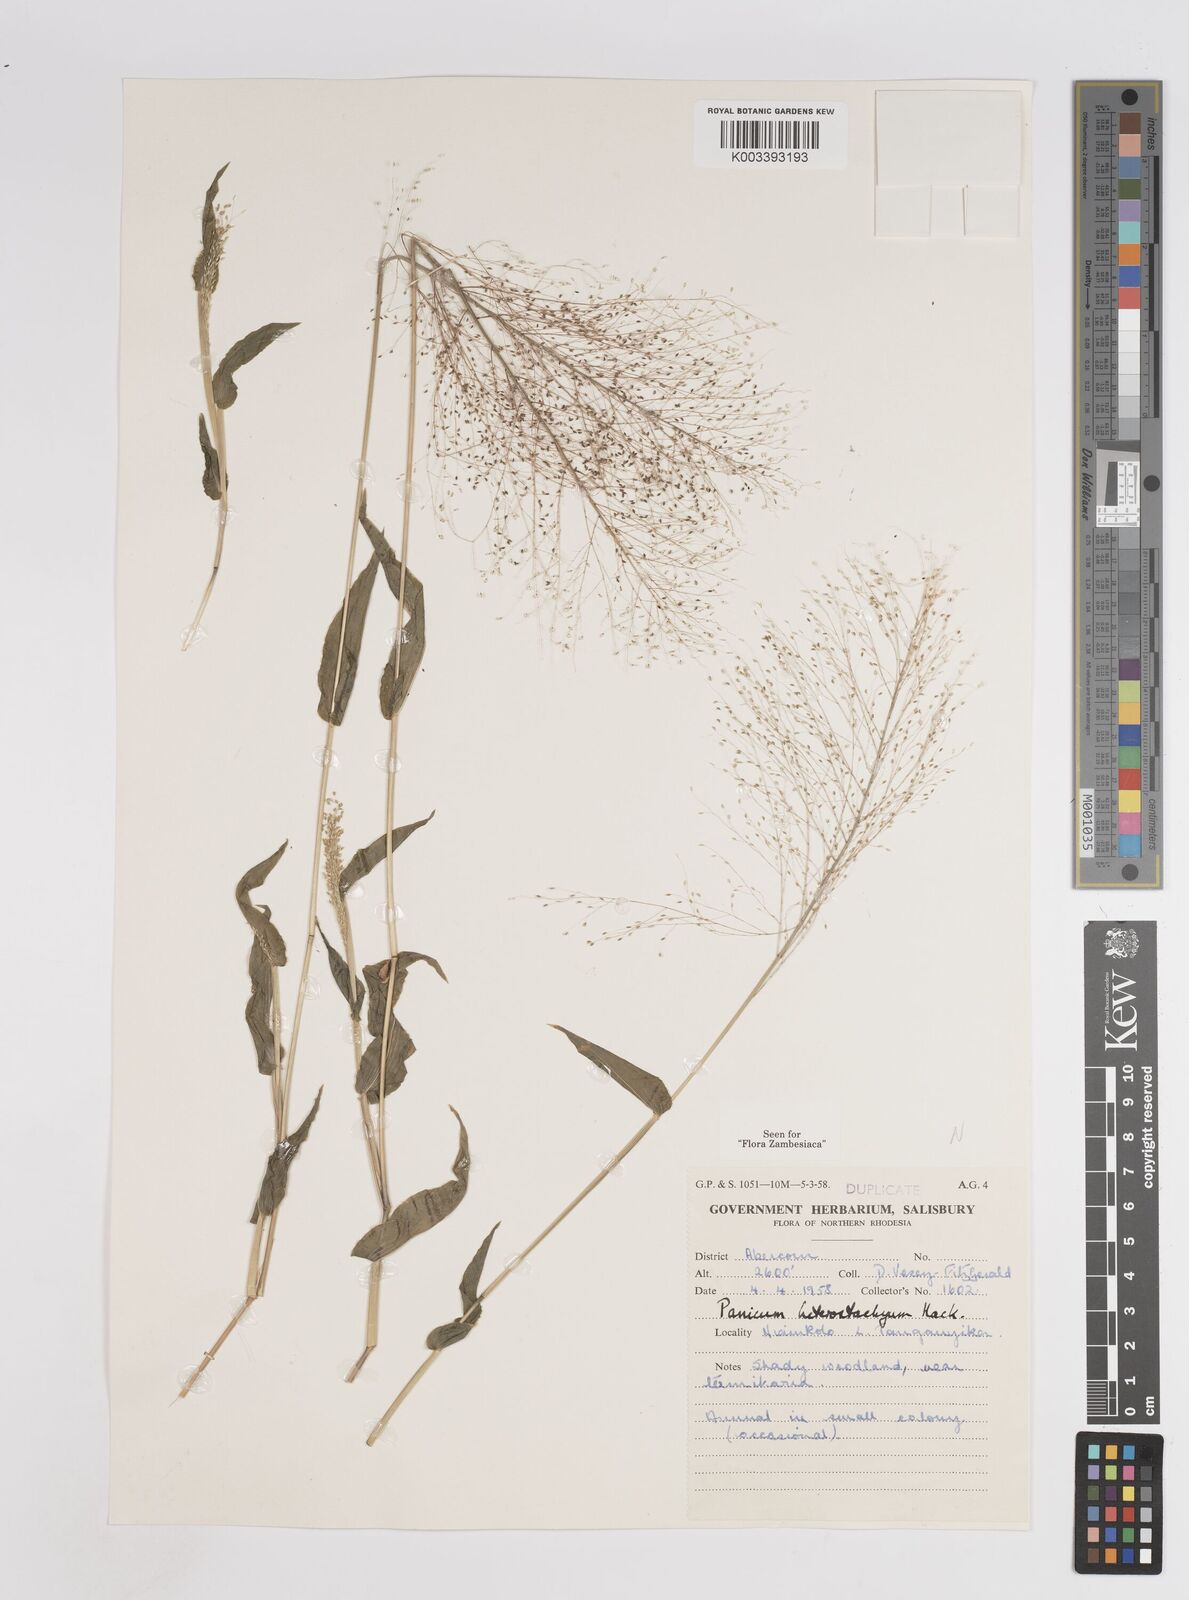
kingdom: Plantae
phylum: Tracheophyta
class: Liliopsida
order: Poales
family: Poaceae
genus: Panicum
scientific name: Panicum hirtum
